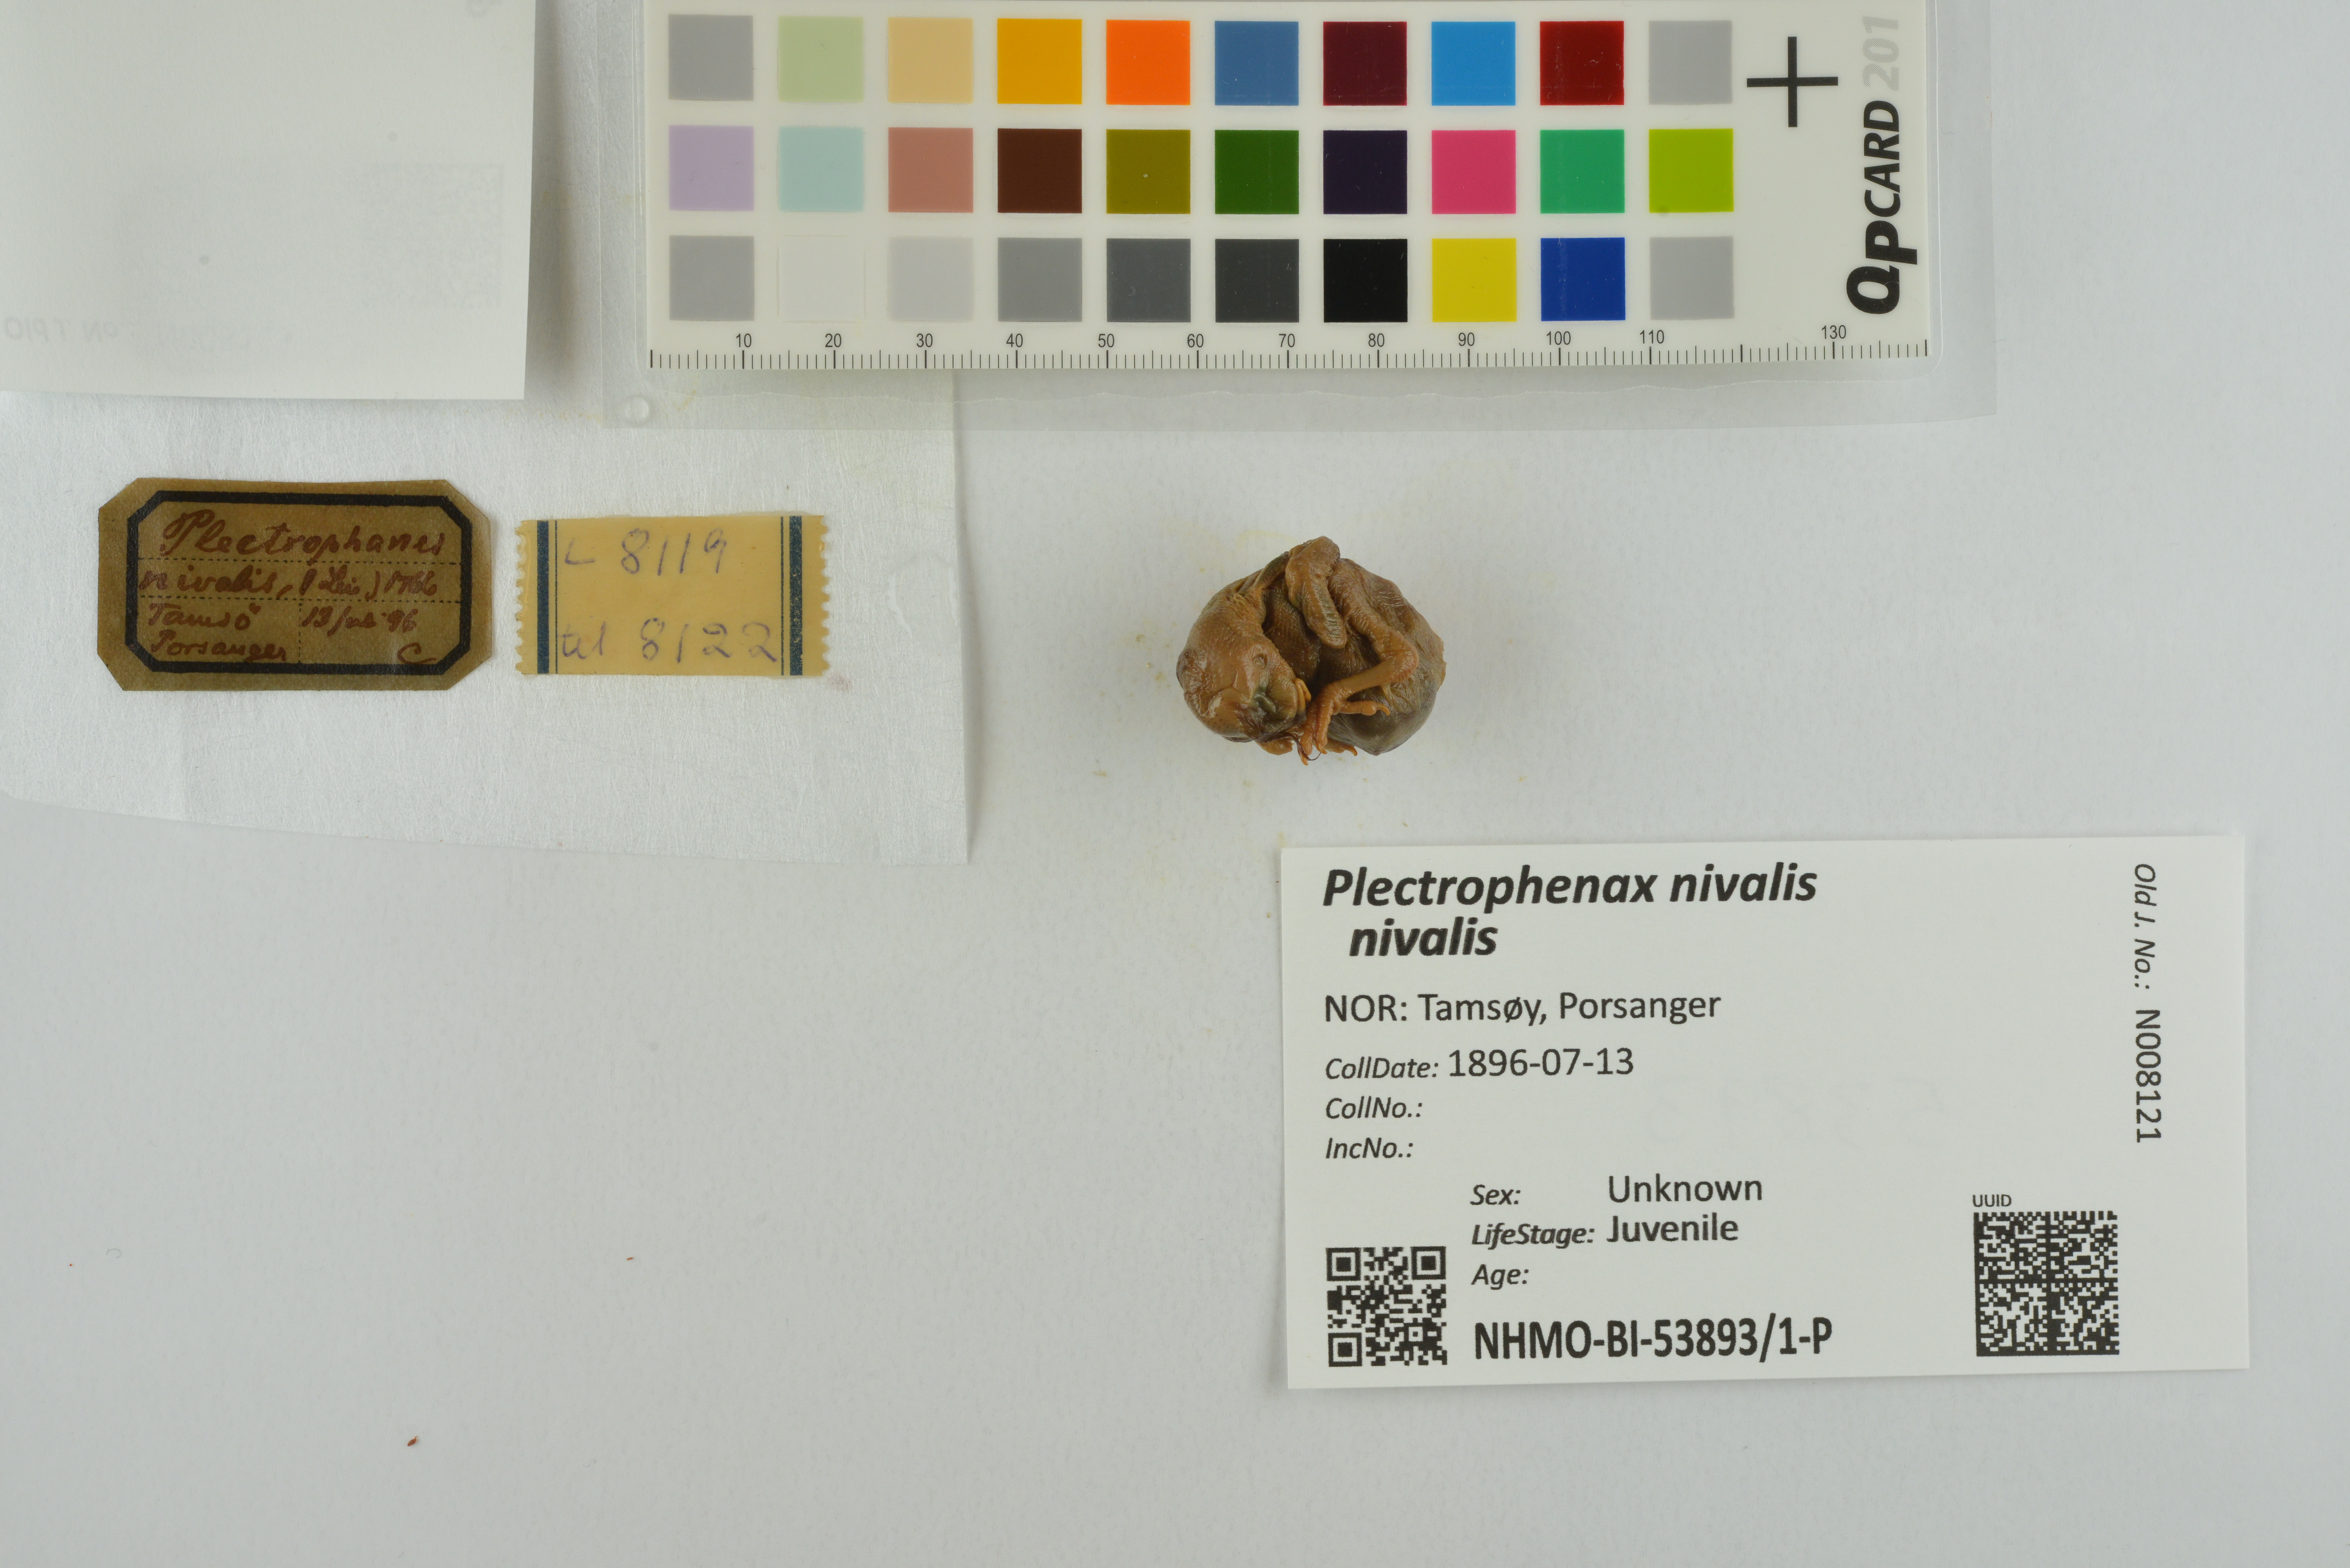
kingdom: Animalia
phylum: Chordata
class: Aves
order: Passeriformes
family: Calcariidae
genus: Plectrophenax
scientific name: Plectrophenax nivalis
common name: Snow bunting
